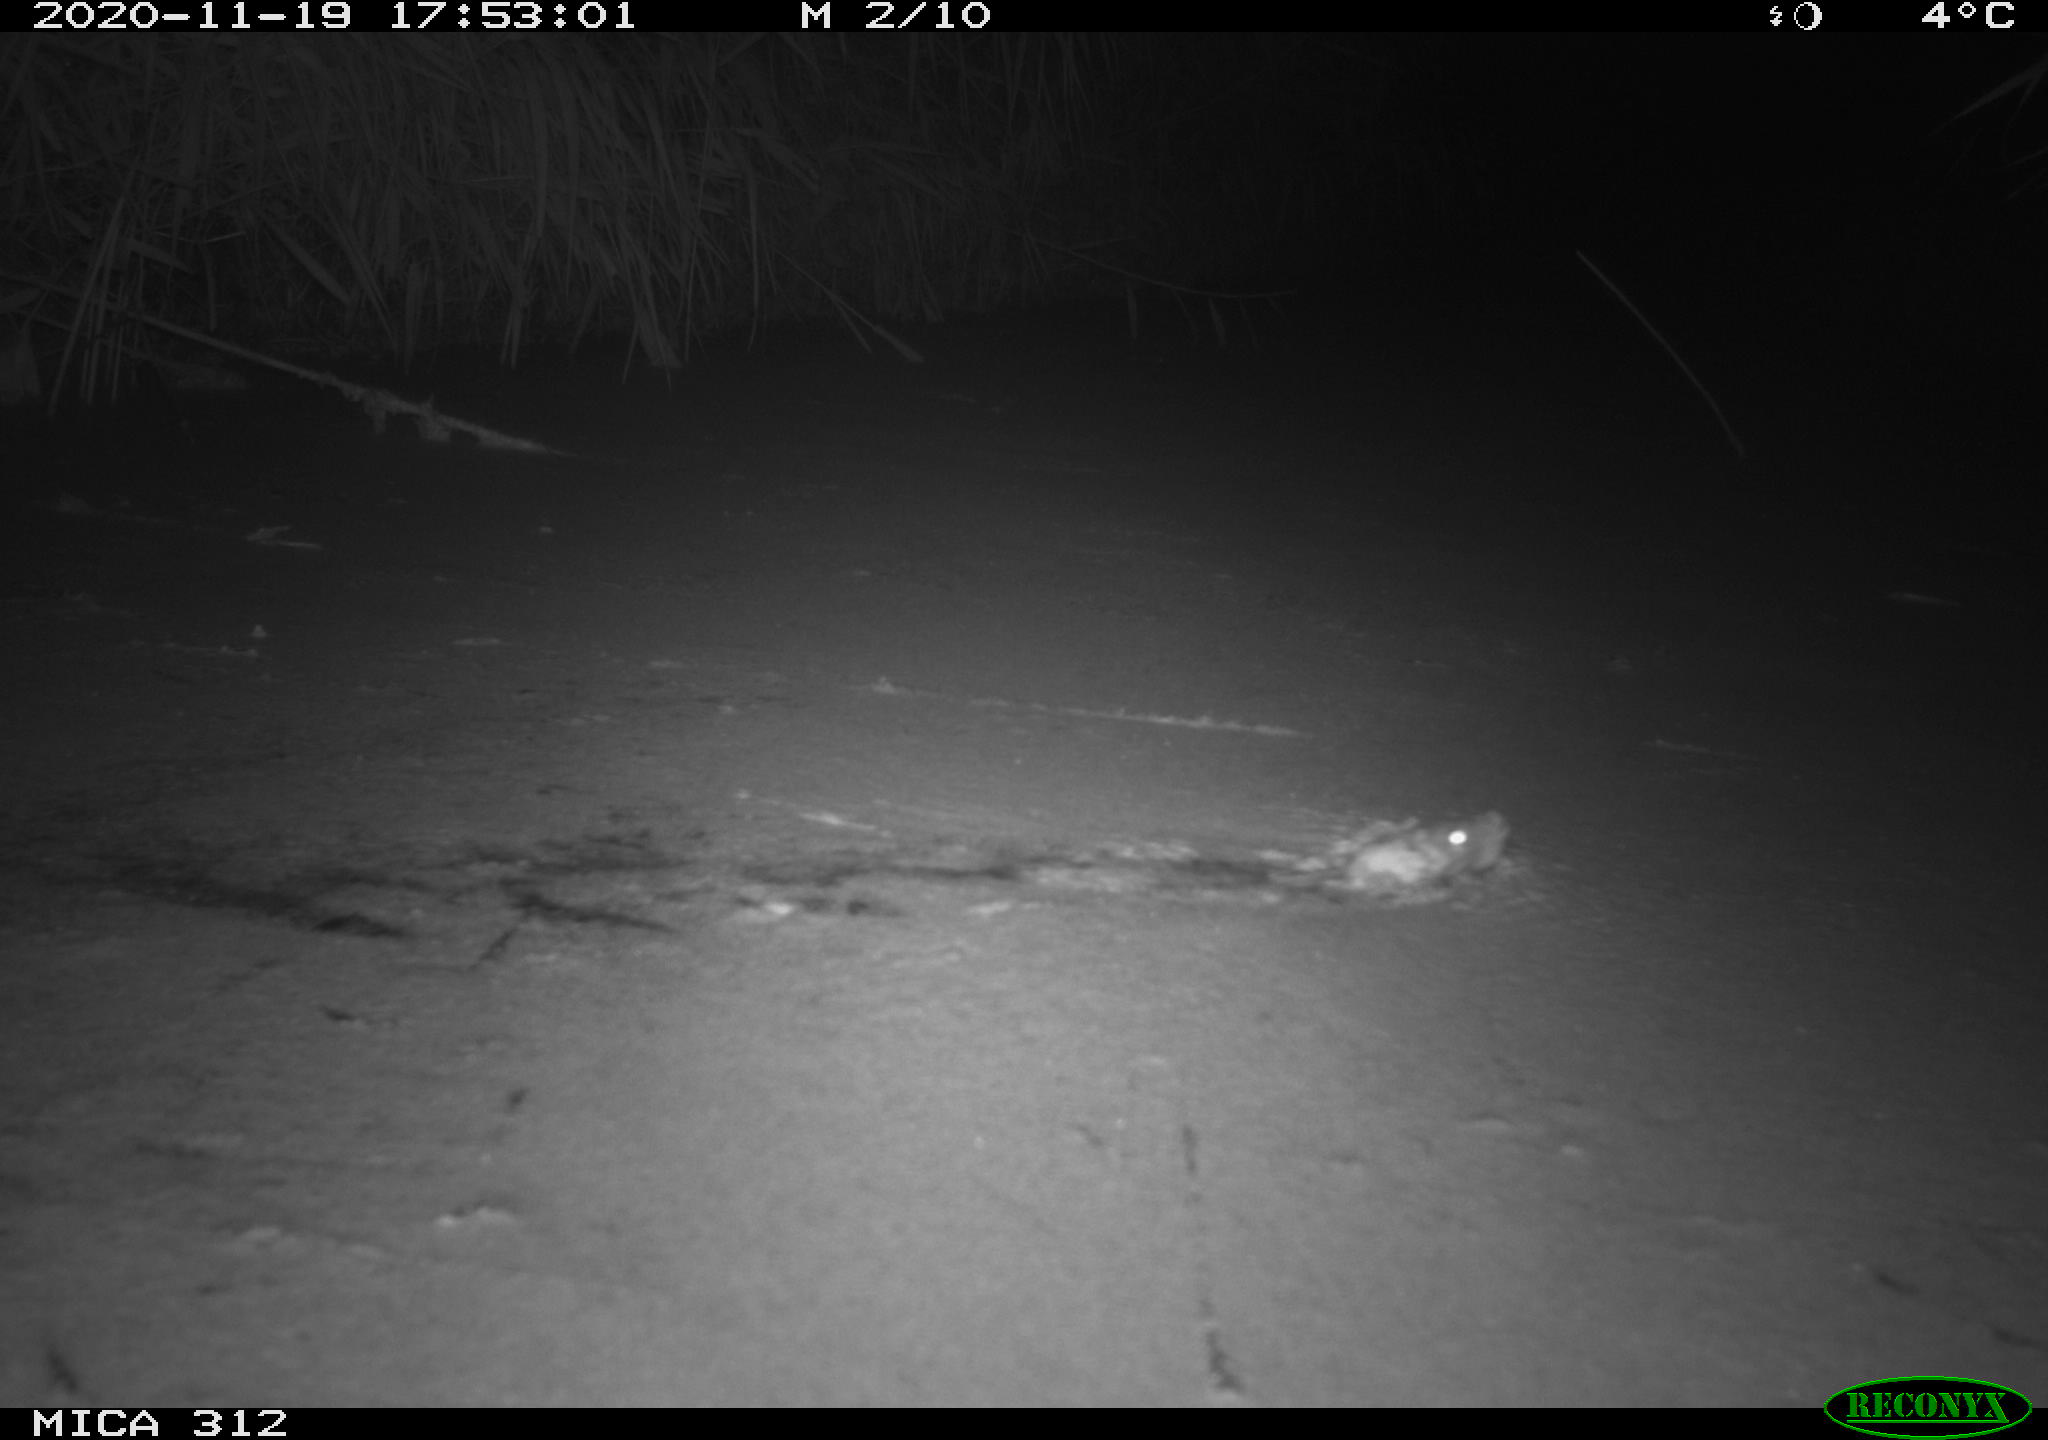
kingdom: Animalia
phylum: Chordata
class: Mammalia
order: Rodentia
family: Muridae
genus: Rattus
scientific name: Rattus norvegicus
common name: Brown rat
